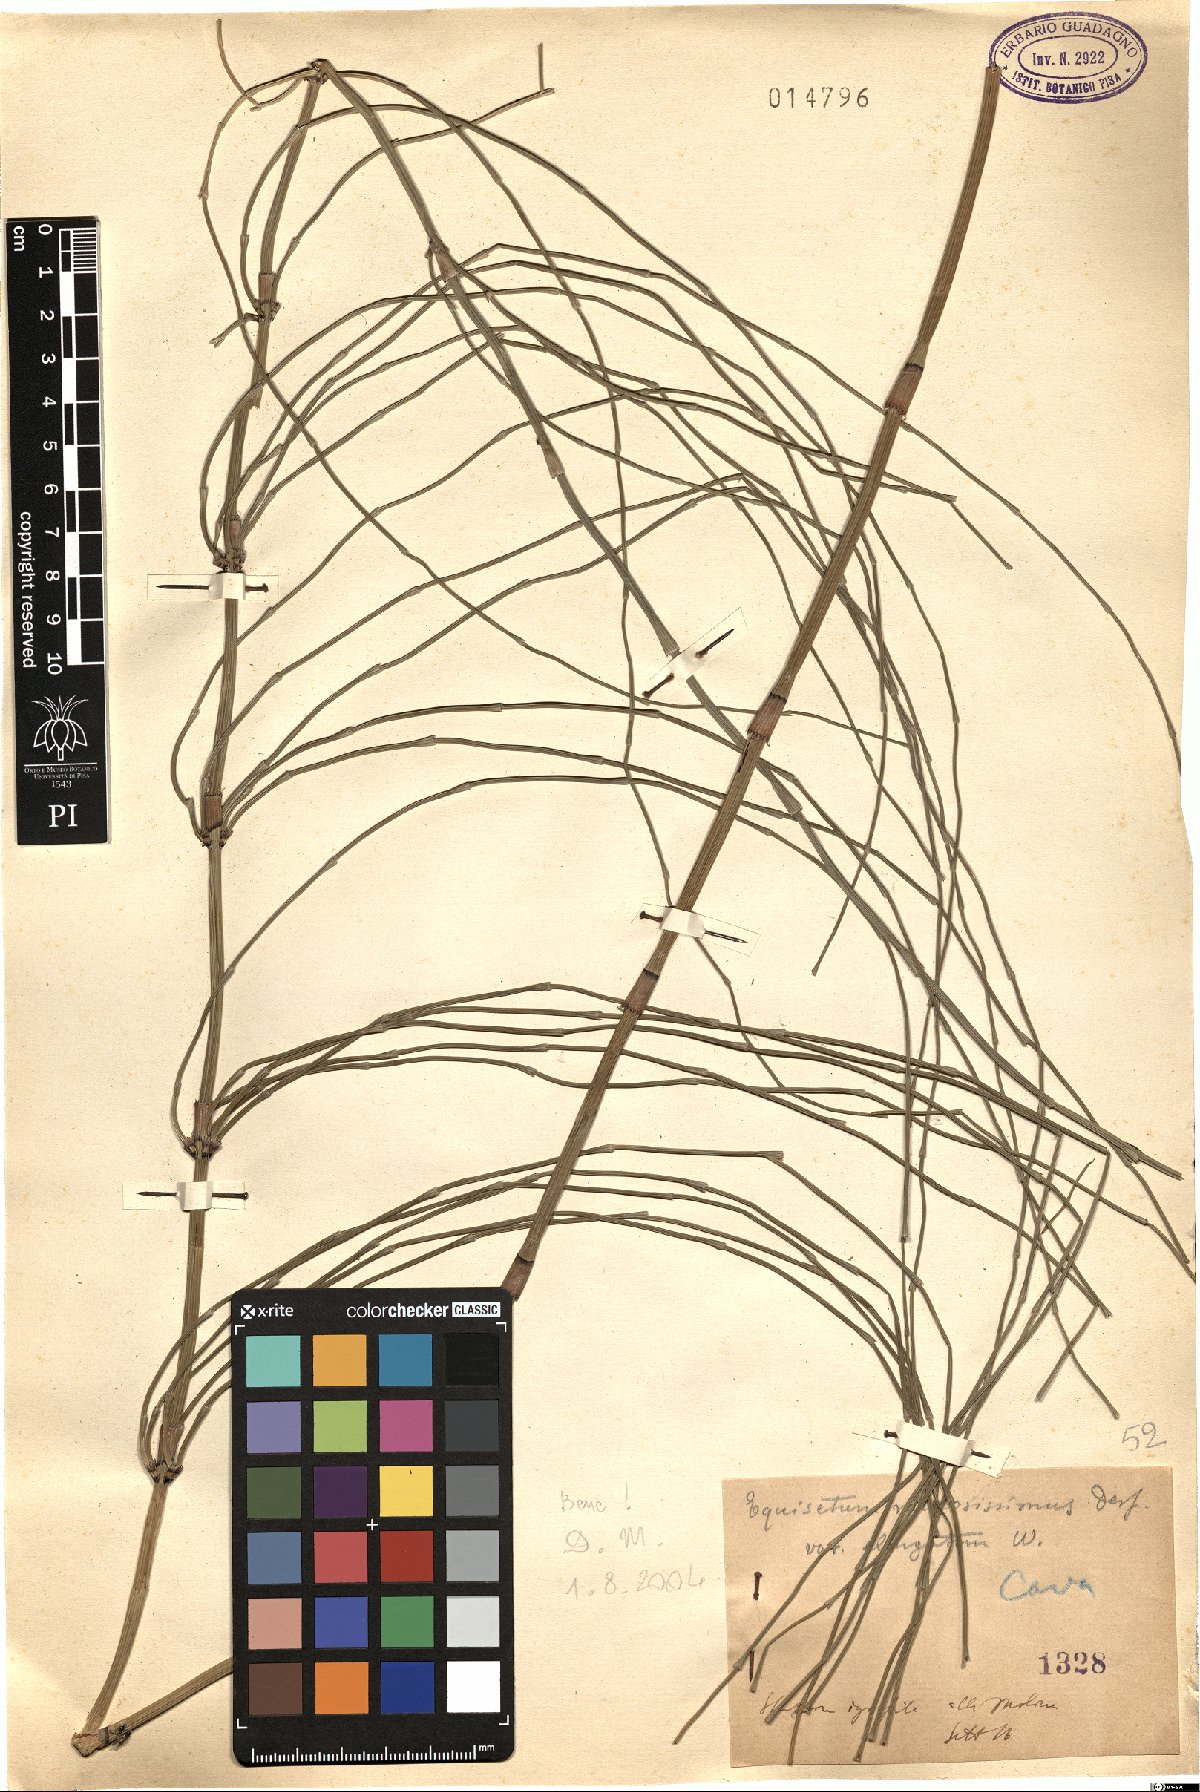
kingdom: Plantae
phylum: Tracheophyta
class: Polypodiopsida
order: Equisetales
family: Equisetaceae
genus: Equisetum
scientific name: Equisetum ramosissimum
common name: Branched horsetail
